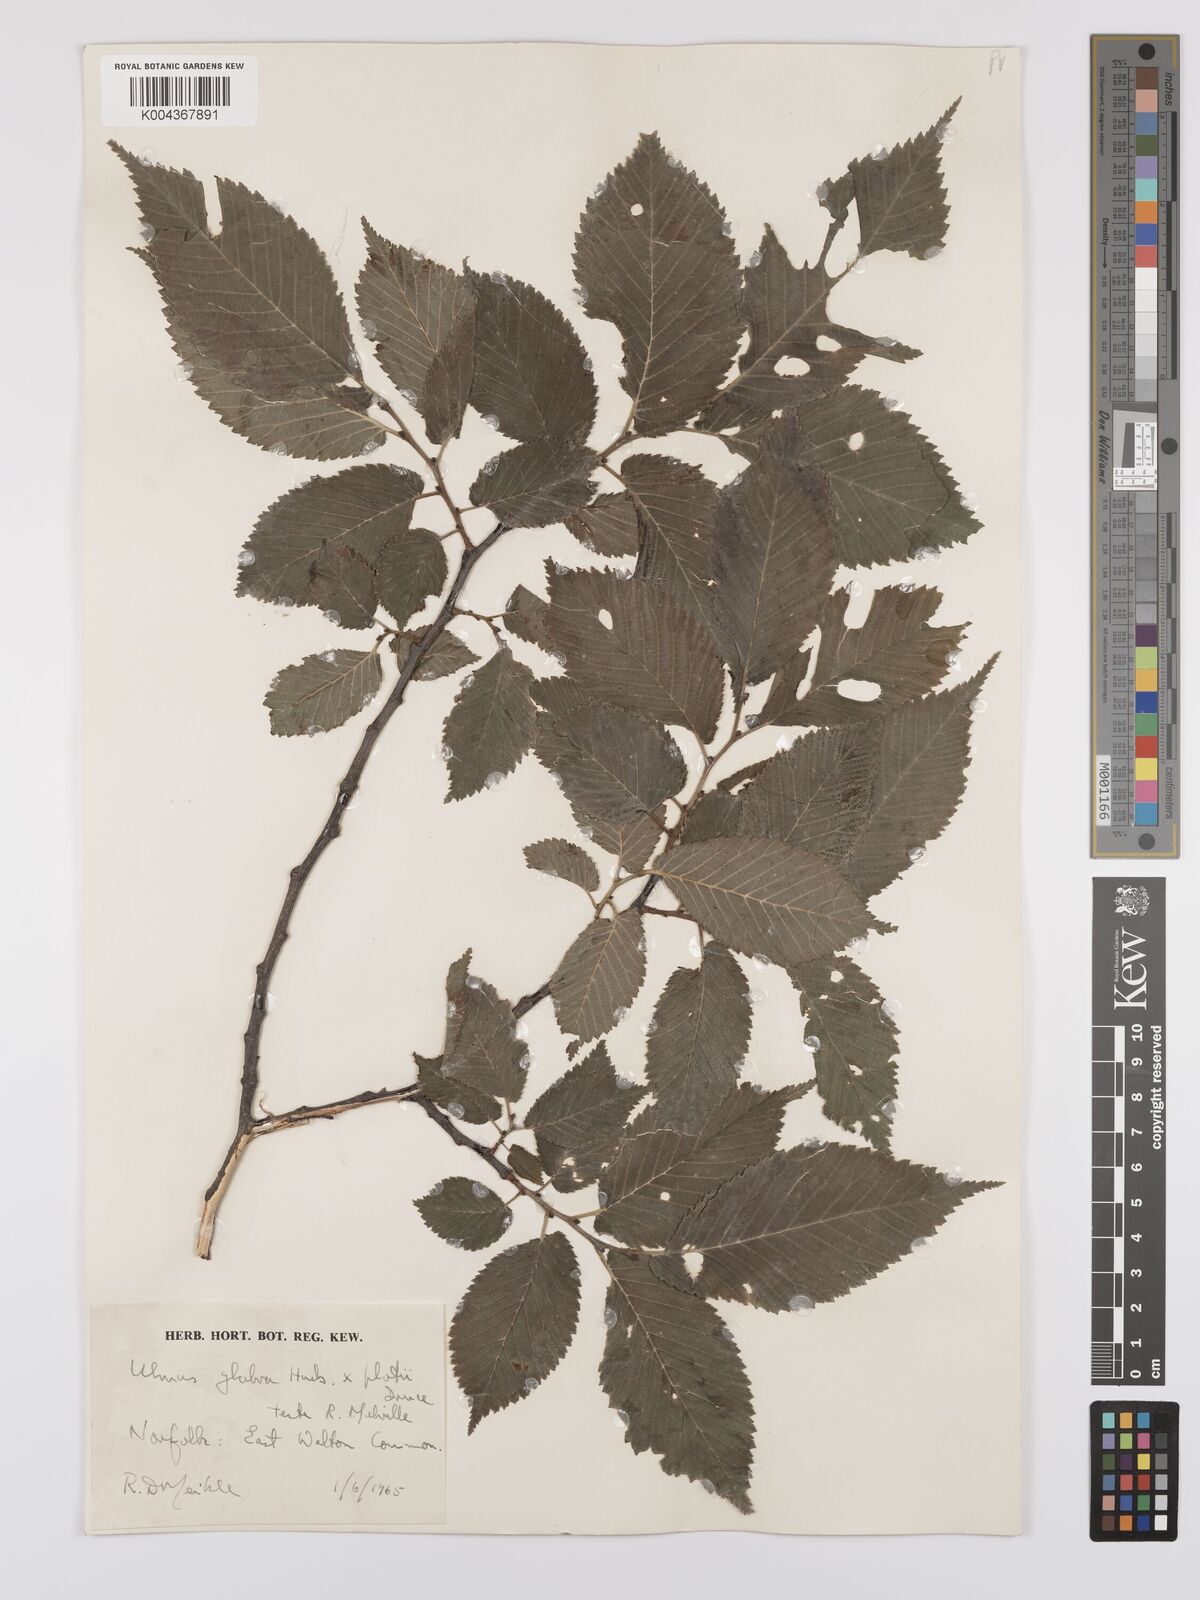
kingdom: Plantae
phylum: Tracheophyta
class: Magnoliopsida
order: Rosales
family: Ulmaceae
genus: Ulmus
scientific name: Ulmus glabra
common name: Wych elm
